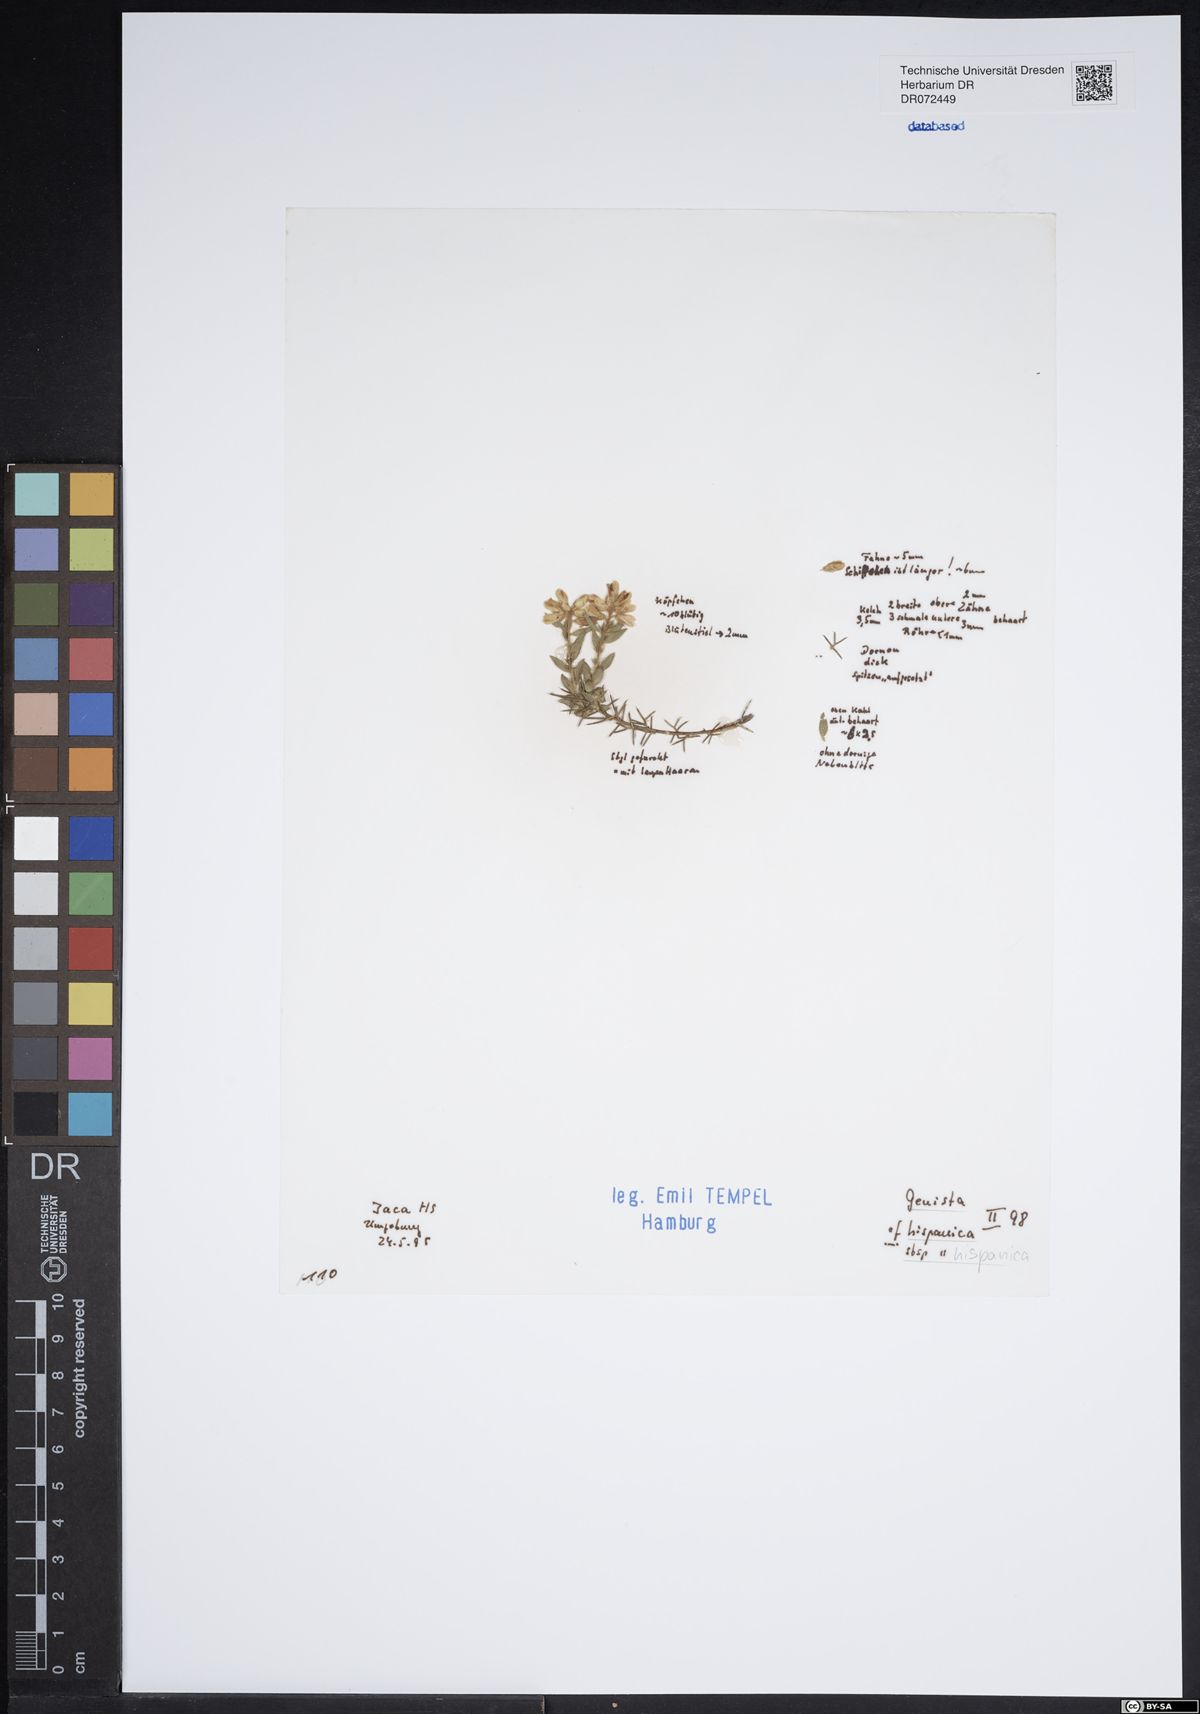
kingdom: Plantae
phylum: Tracheophyta
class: Magnoliopsida
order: Fabales
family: Fabaceae
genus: Genista
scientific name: Genista hispanica
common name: Spanish gorse
